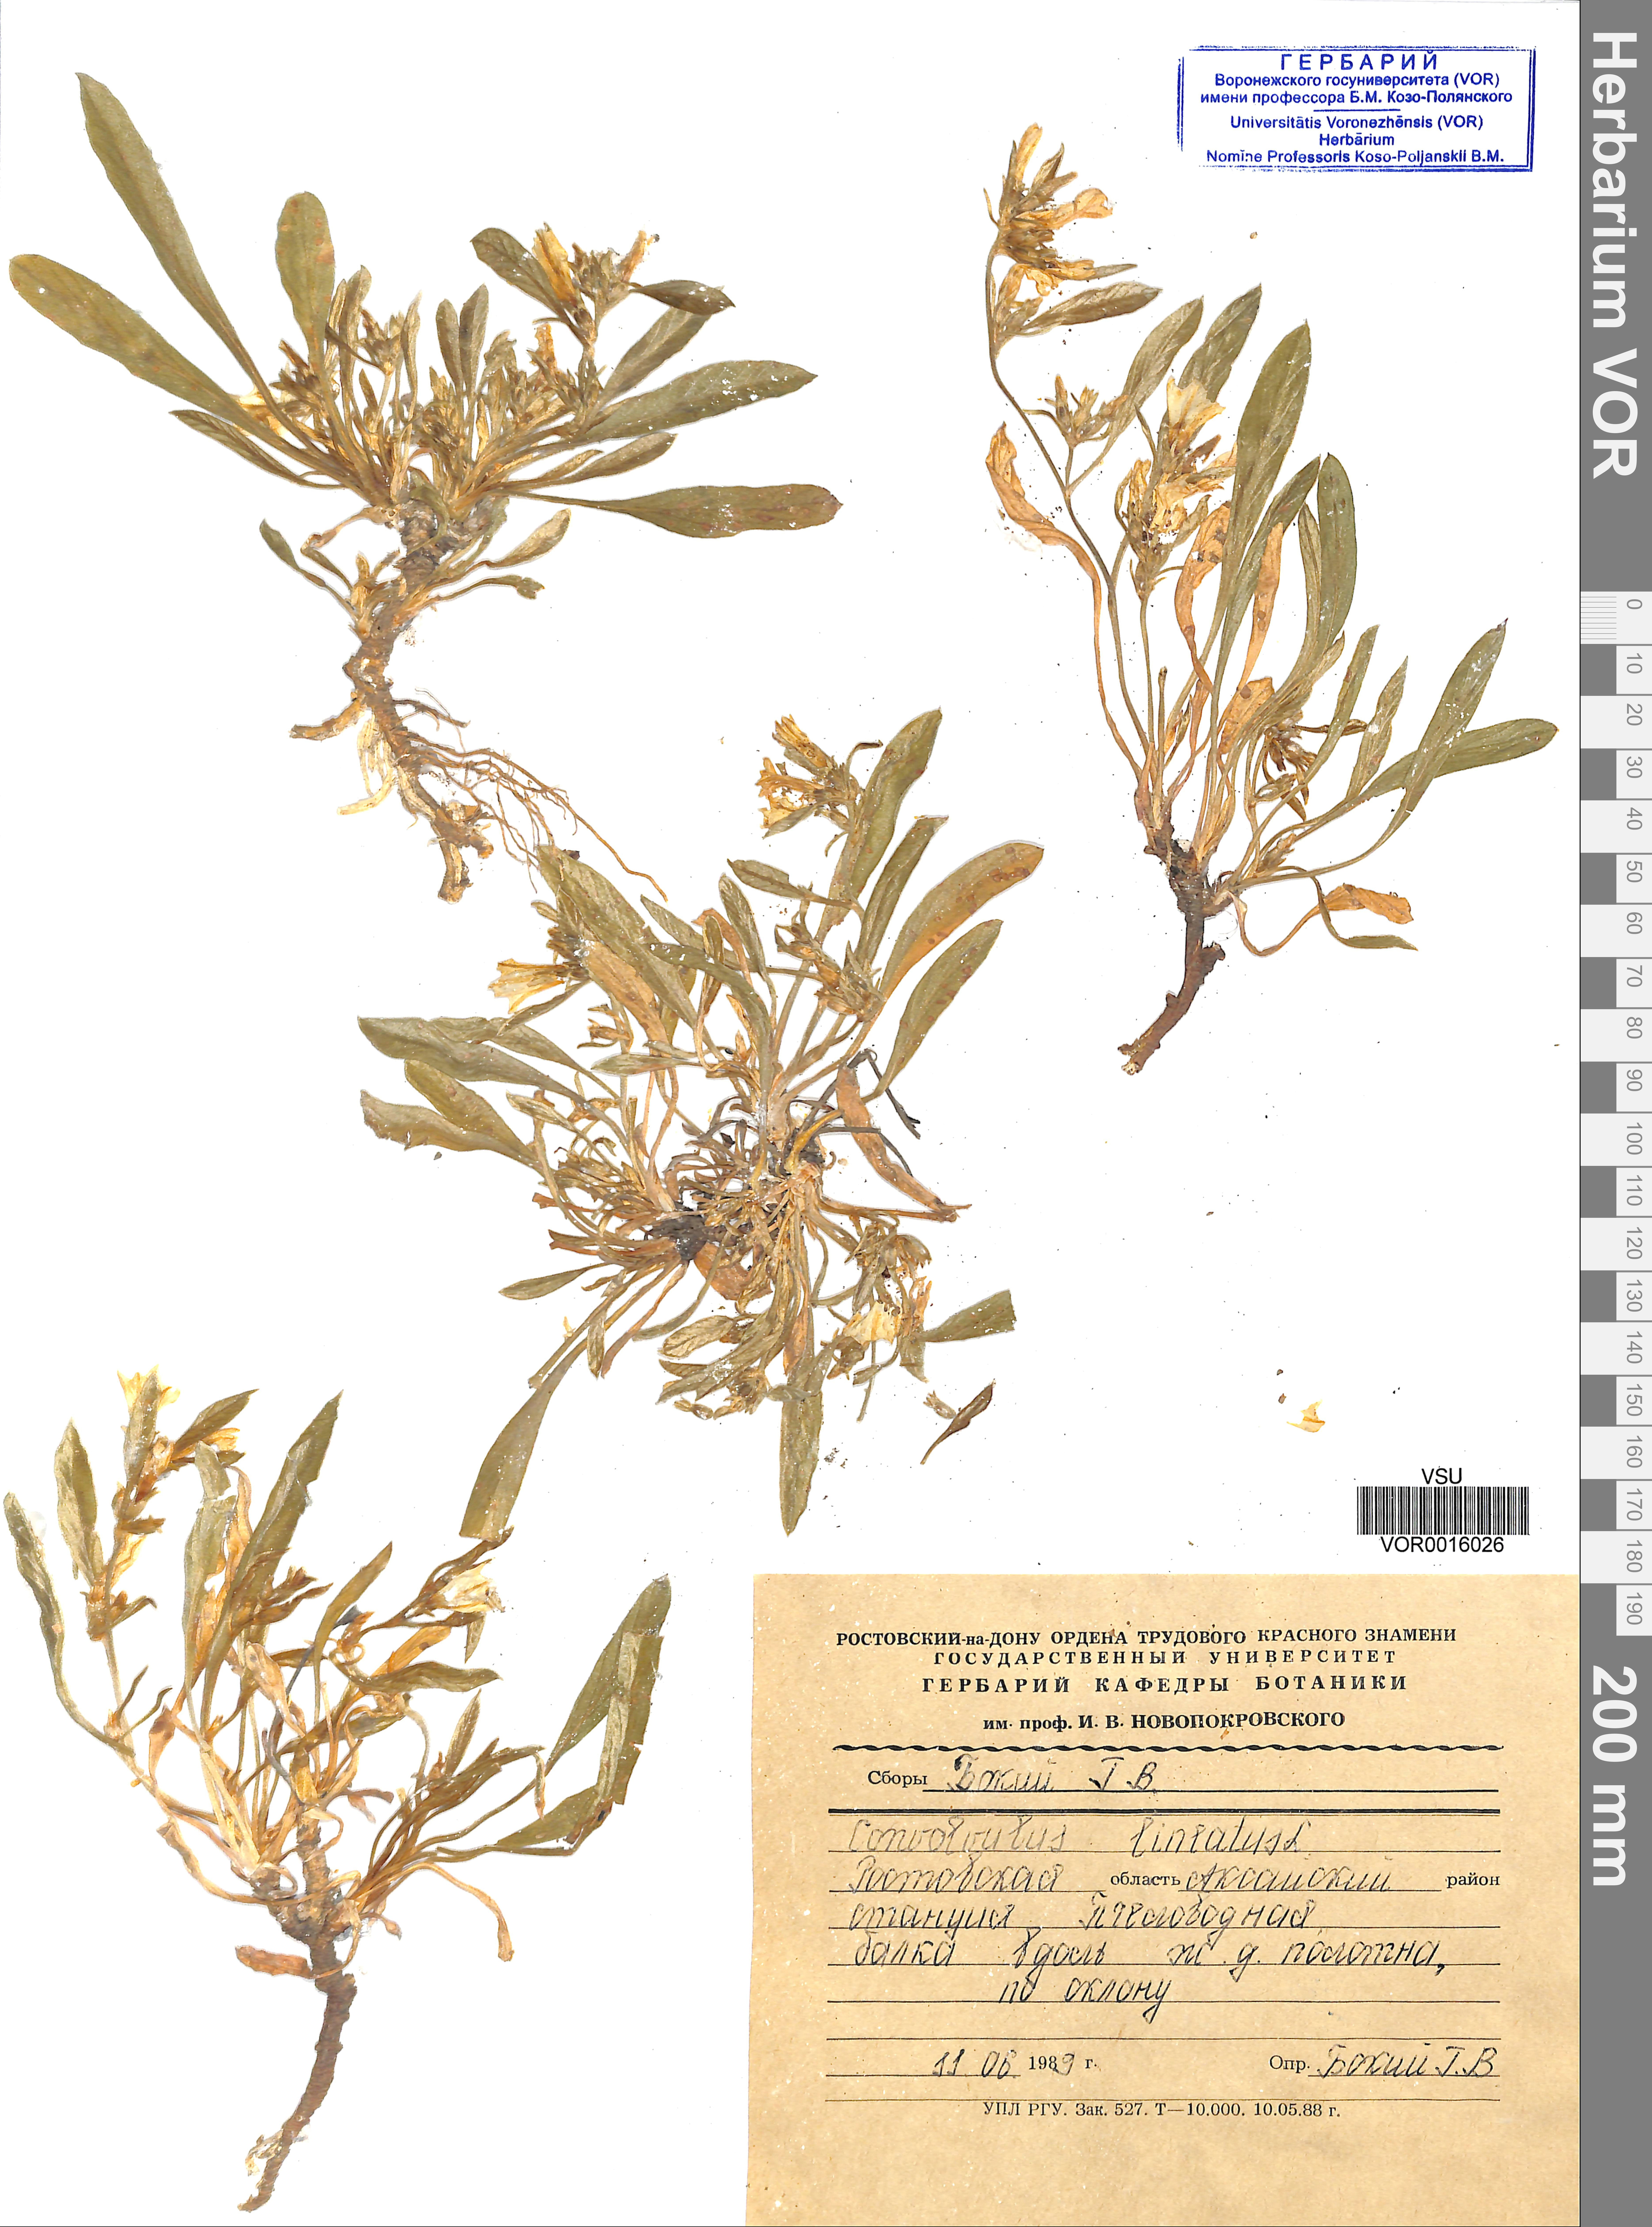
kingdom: Plantae
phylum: Tracheophyta
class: Magnoliopsida
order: Solanales
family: Convolvulaceae
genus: Convolvulus
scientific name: Convolvulus lineatus
